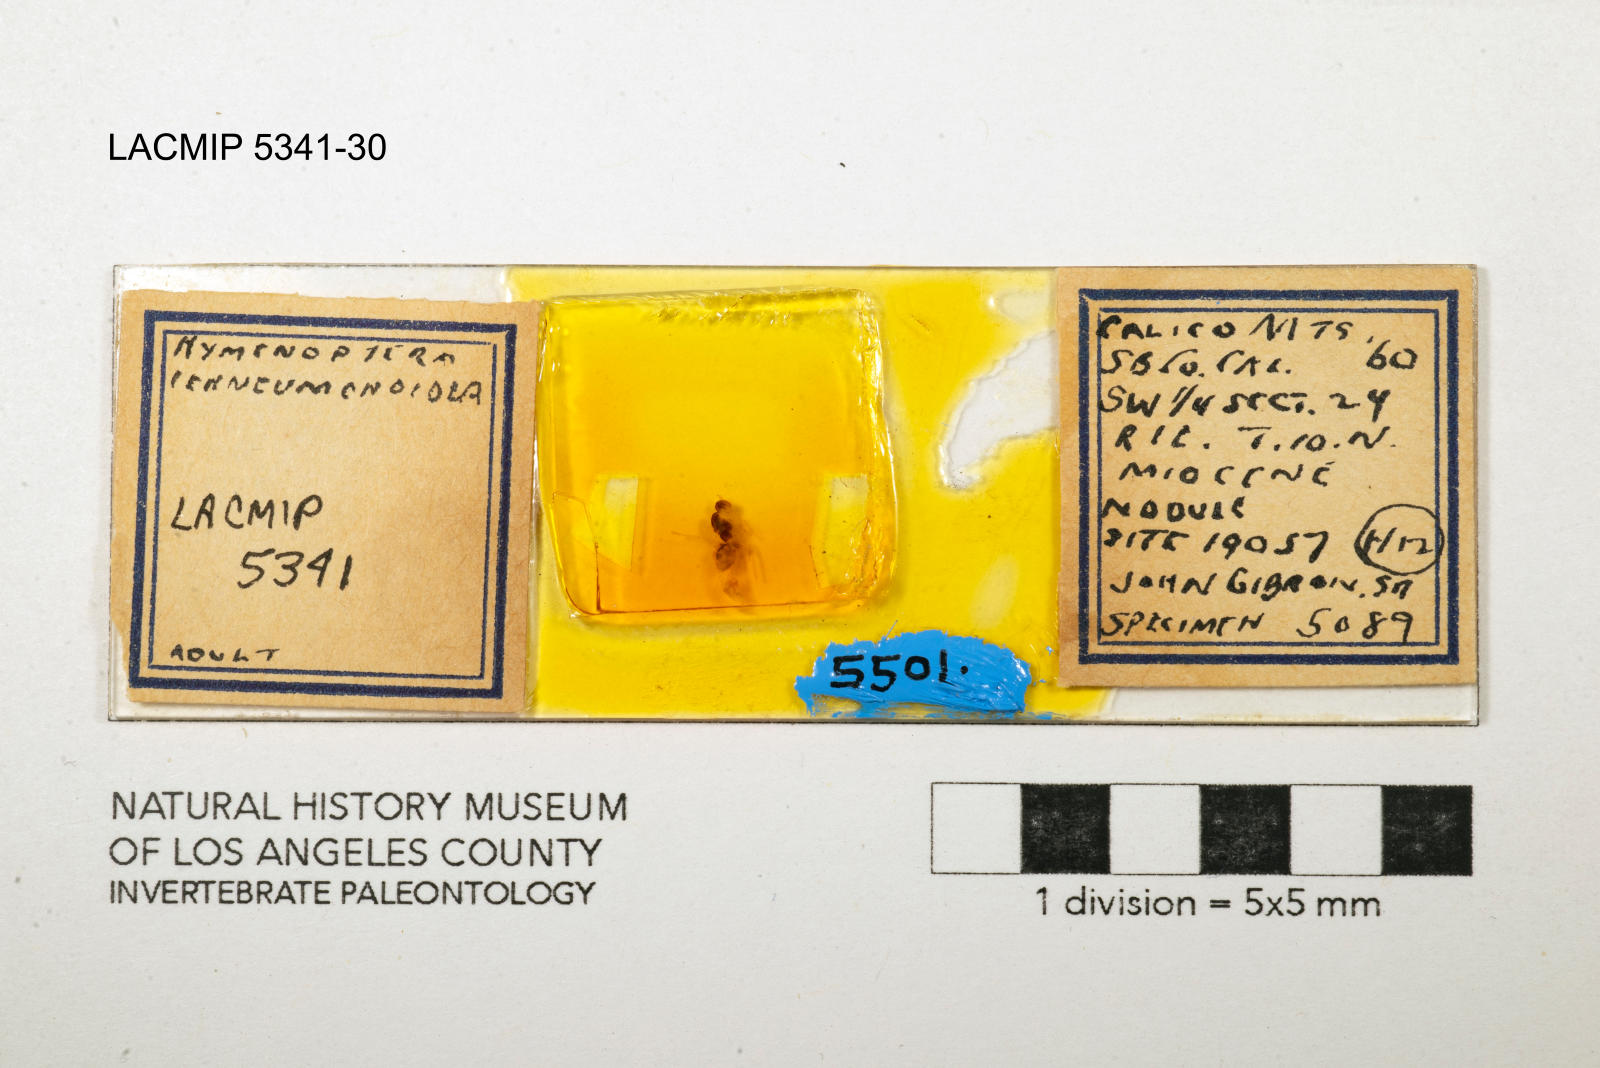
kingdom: Animalia
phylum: Arthropoda
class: Insecta
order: Hymenoptera
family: Ichneumonidae
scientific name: Ichneumonidae
